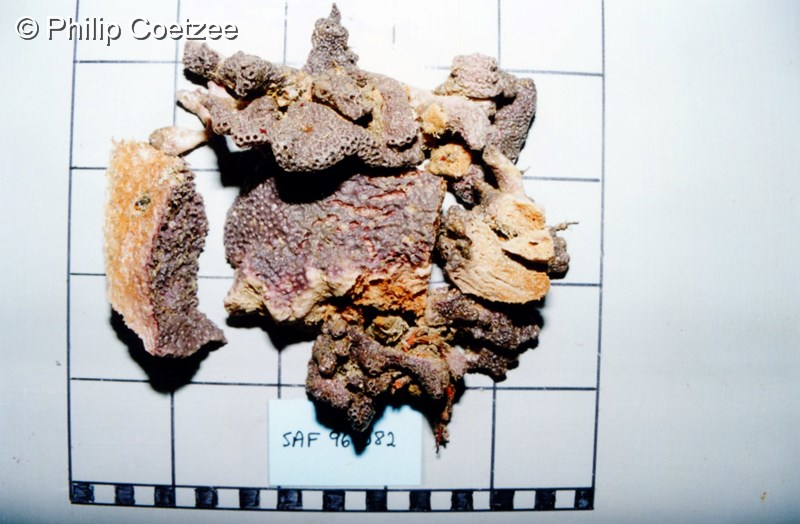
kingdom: Animalia
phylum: Porifera
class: Demospongiae
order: Dictyoceratida
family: Irciniidae
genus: Psammocinia
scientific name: Psammocinia
